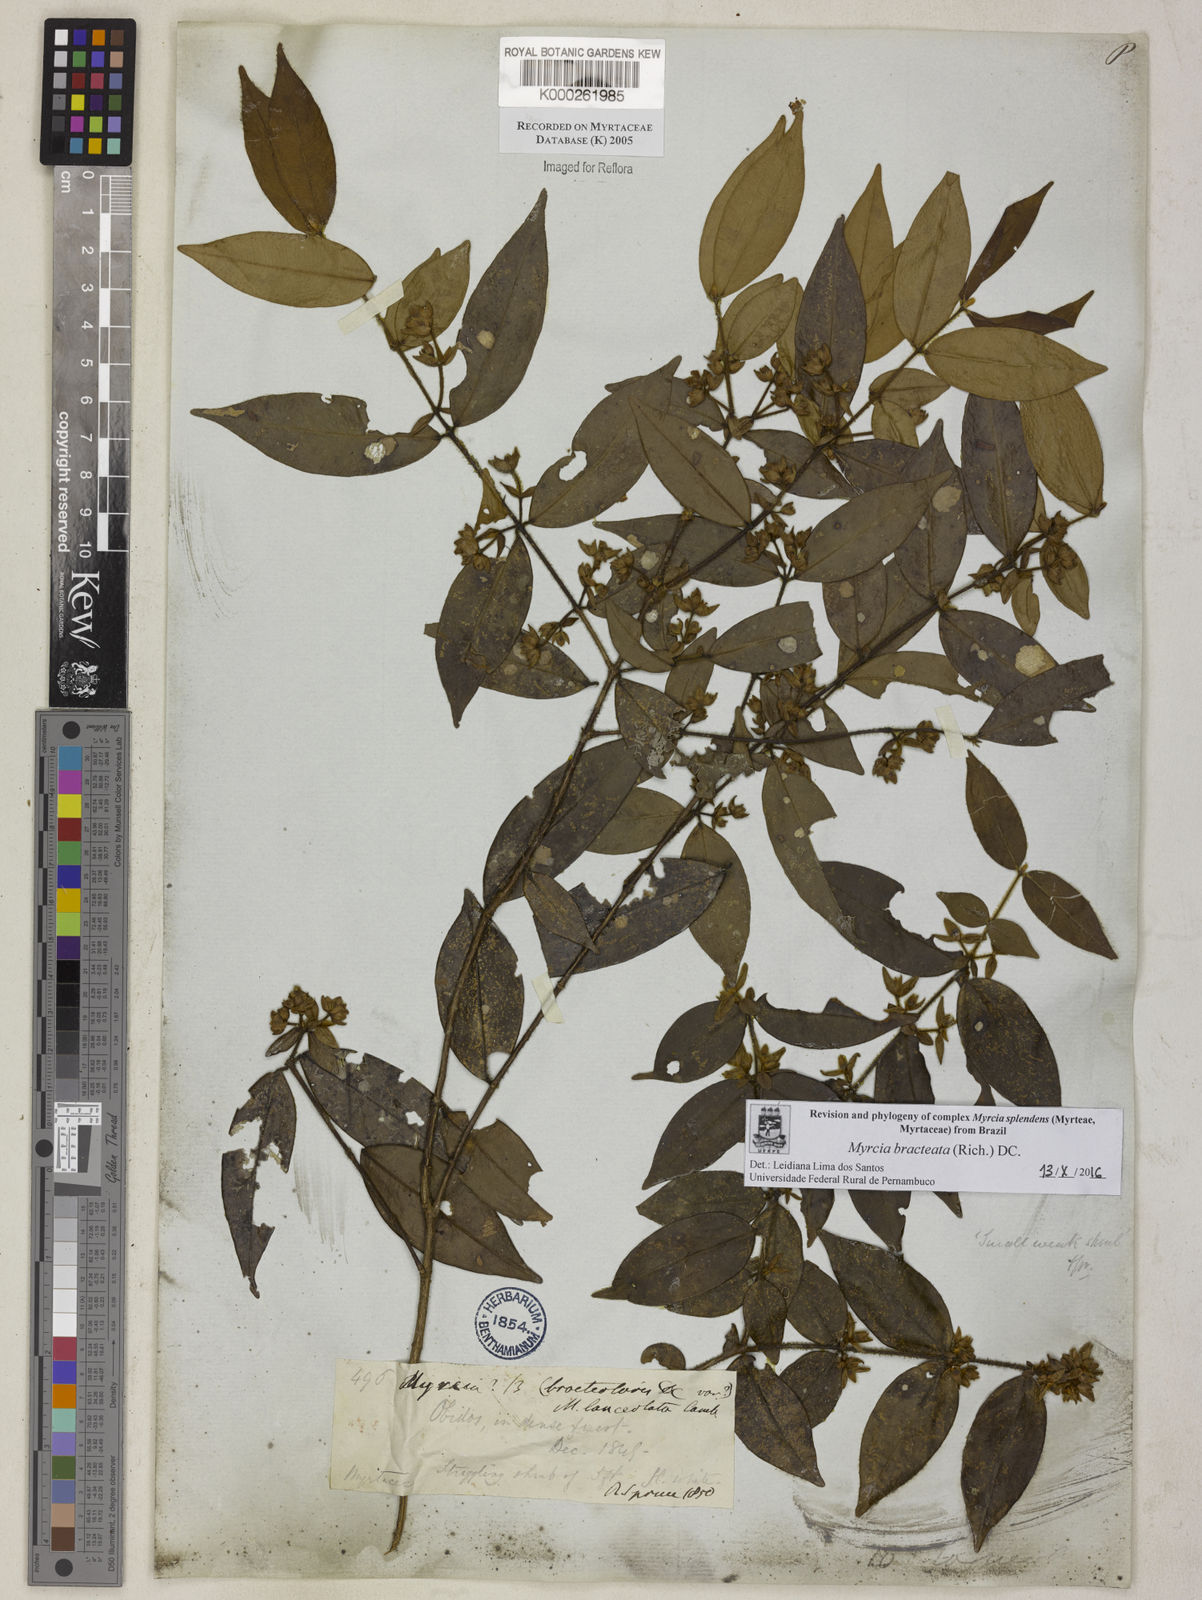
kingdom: Plantae
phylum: Tracheophyta
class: Magnoliopsida
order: Myrtales
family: Myrtaceae
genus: Myrcia
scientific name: Myrcia bracteata
